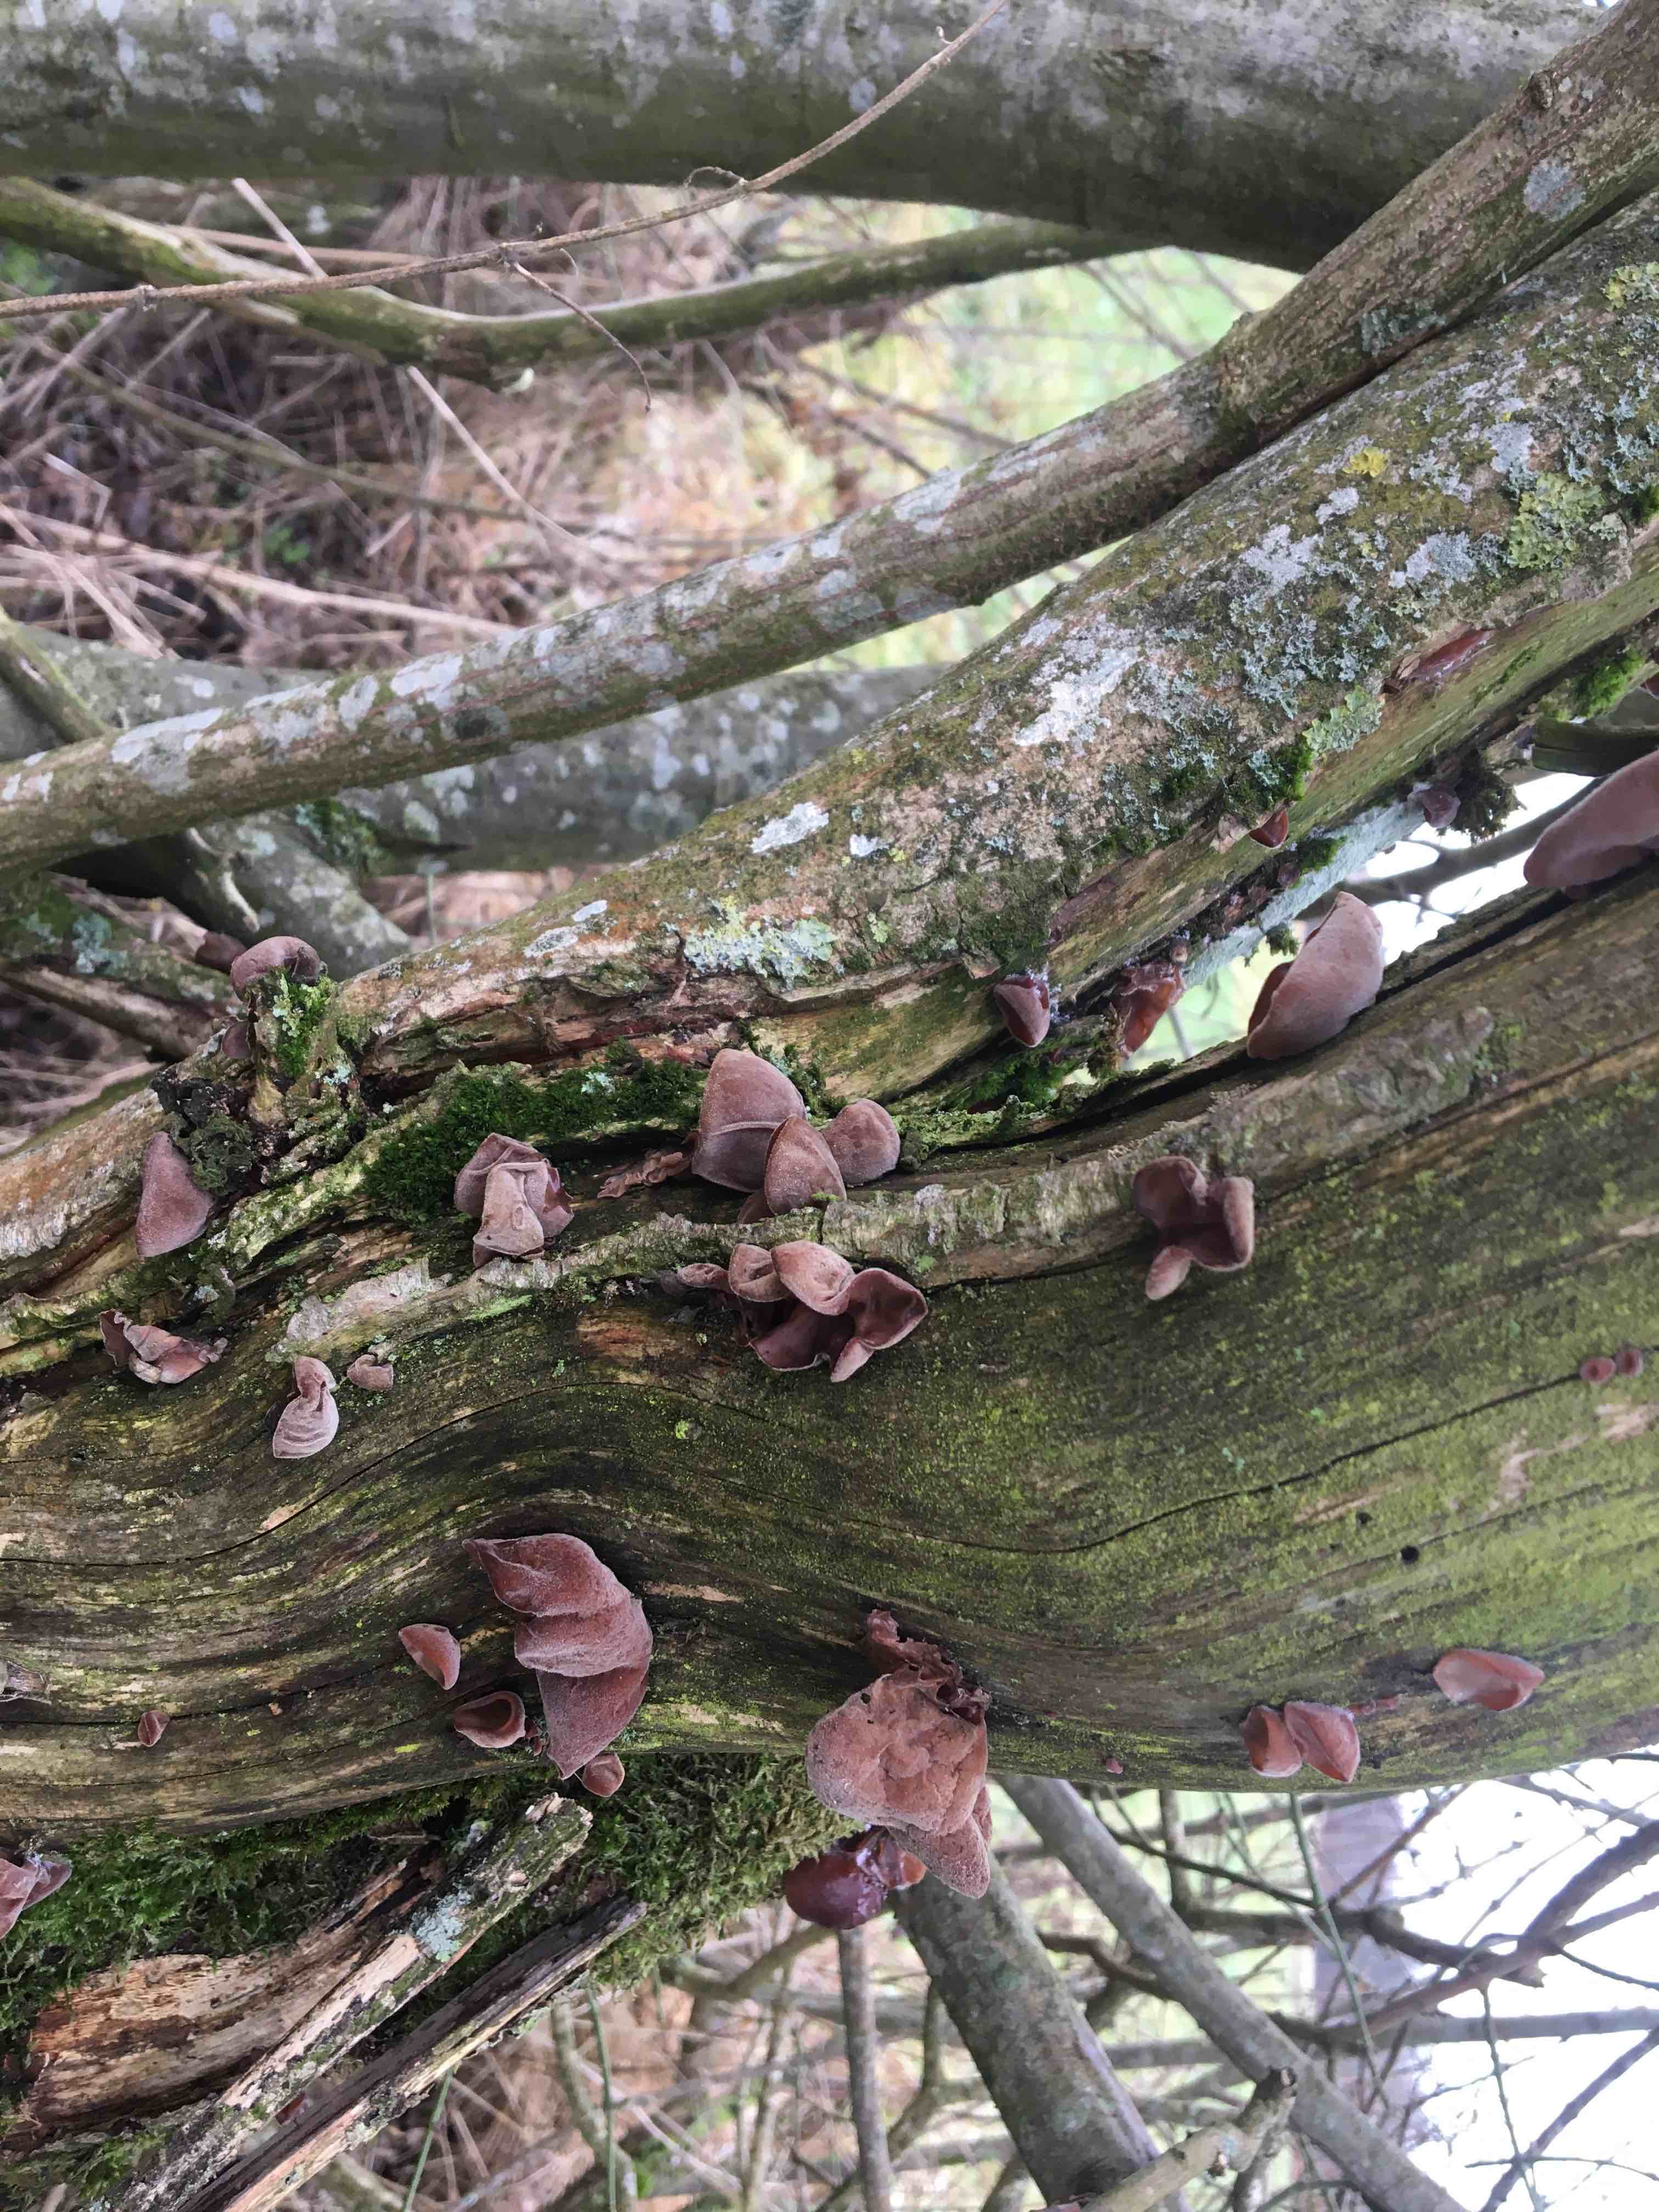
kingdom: Fungi
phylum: Basidiomycota
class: Agaricomycetes
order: Auriculariales
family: Auriculariaceae
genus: Auricularia
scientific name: Auricularia auricula-judae
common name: almindelig judasøre
